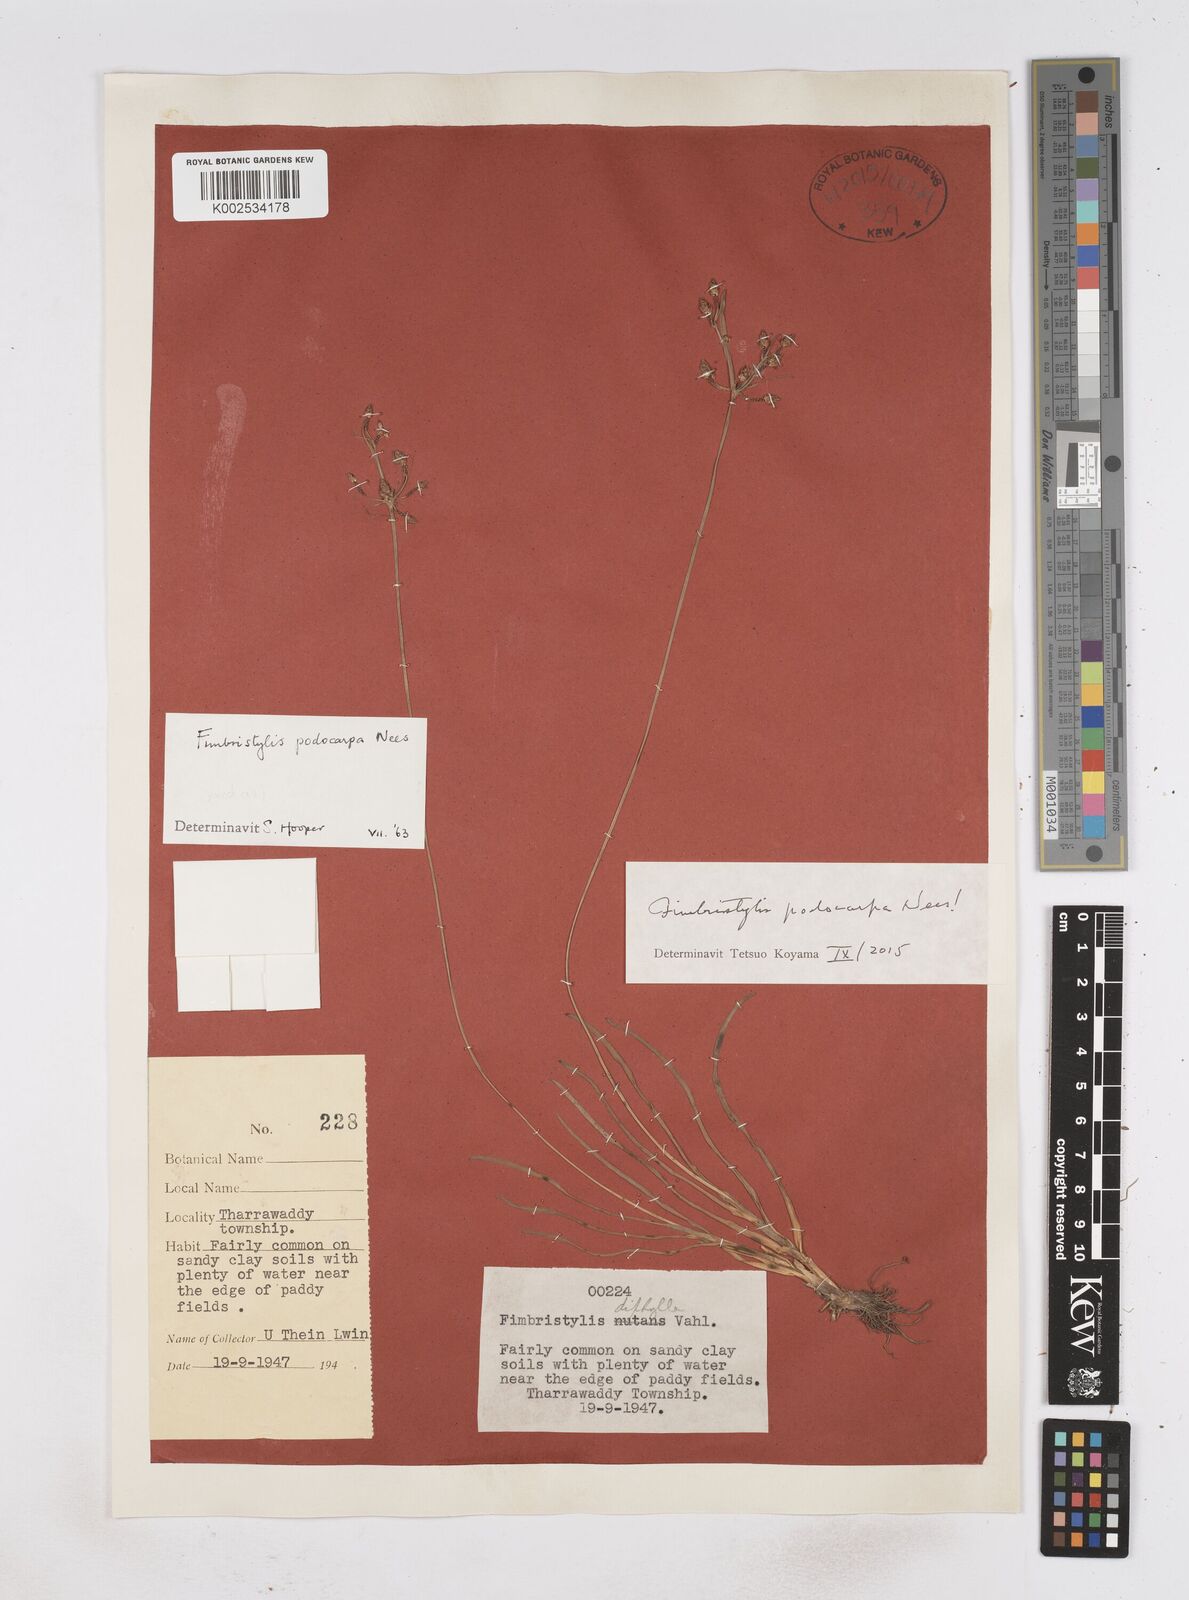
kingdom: Plantae
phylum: Tracheophyta
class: Liliopsida
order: Poales
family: Cyperaceae
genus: Fimbristylis
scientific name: Fimbristylis dichotoma
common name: Forked fimbry
